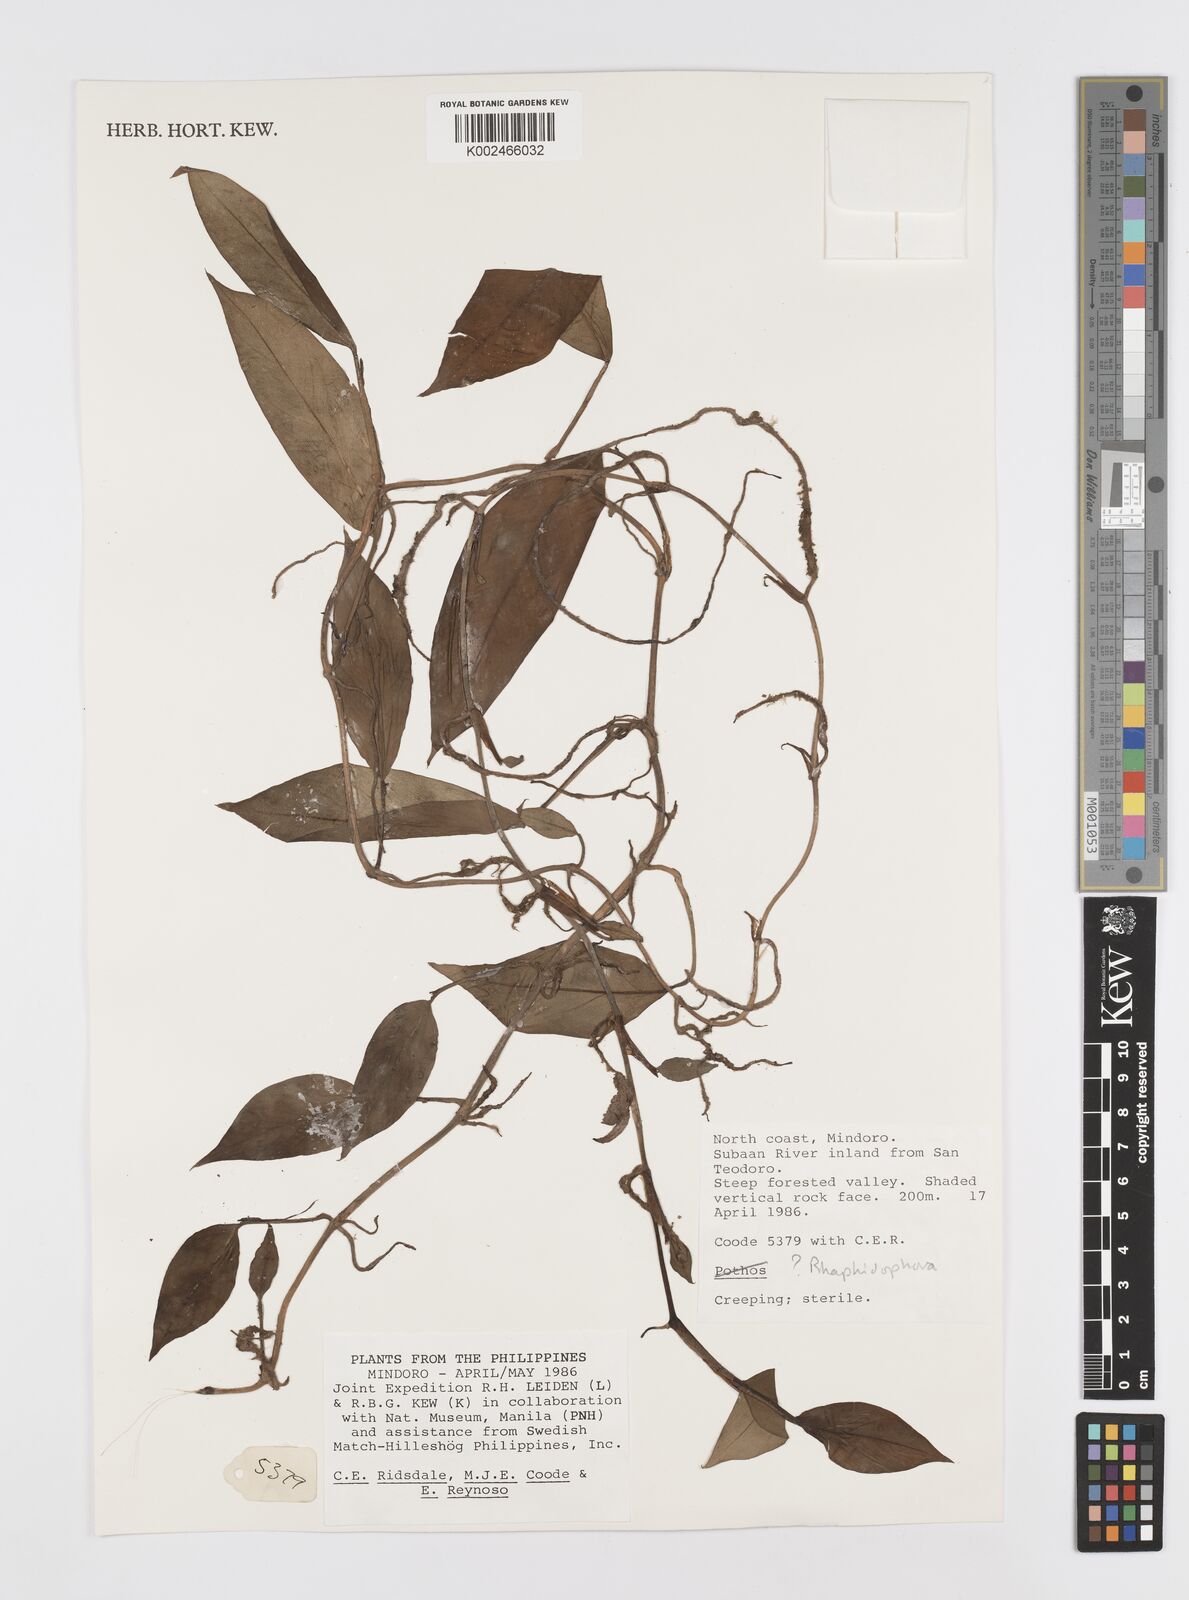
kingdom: Plantae
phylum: Tracheophyta
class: Liliopsida
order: Alismatales
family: Araceae
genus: Rhaphidophora
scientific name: Rhaphidophora elmeri
